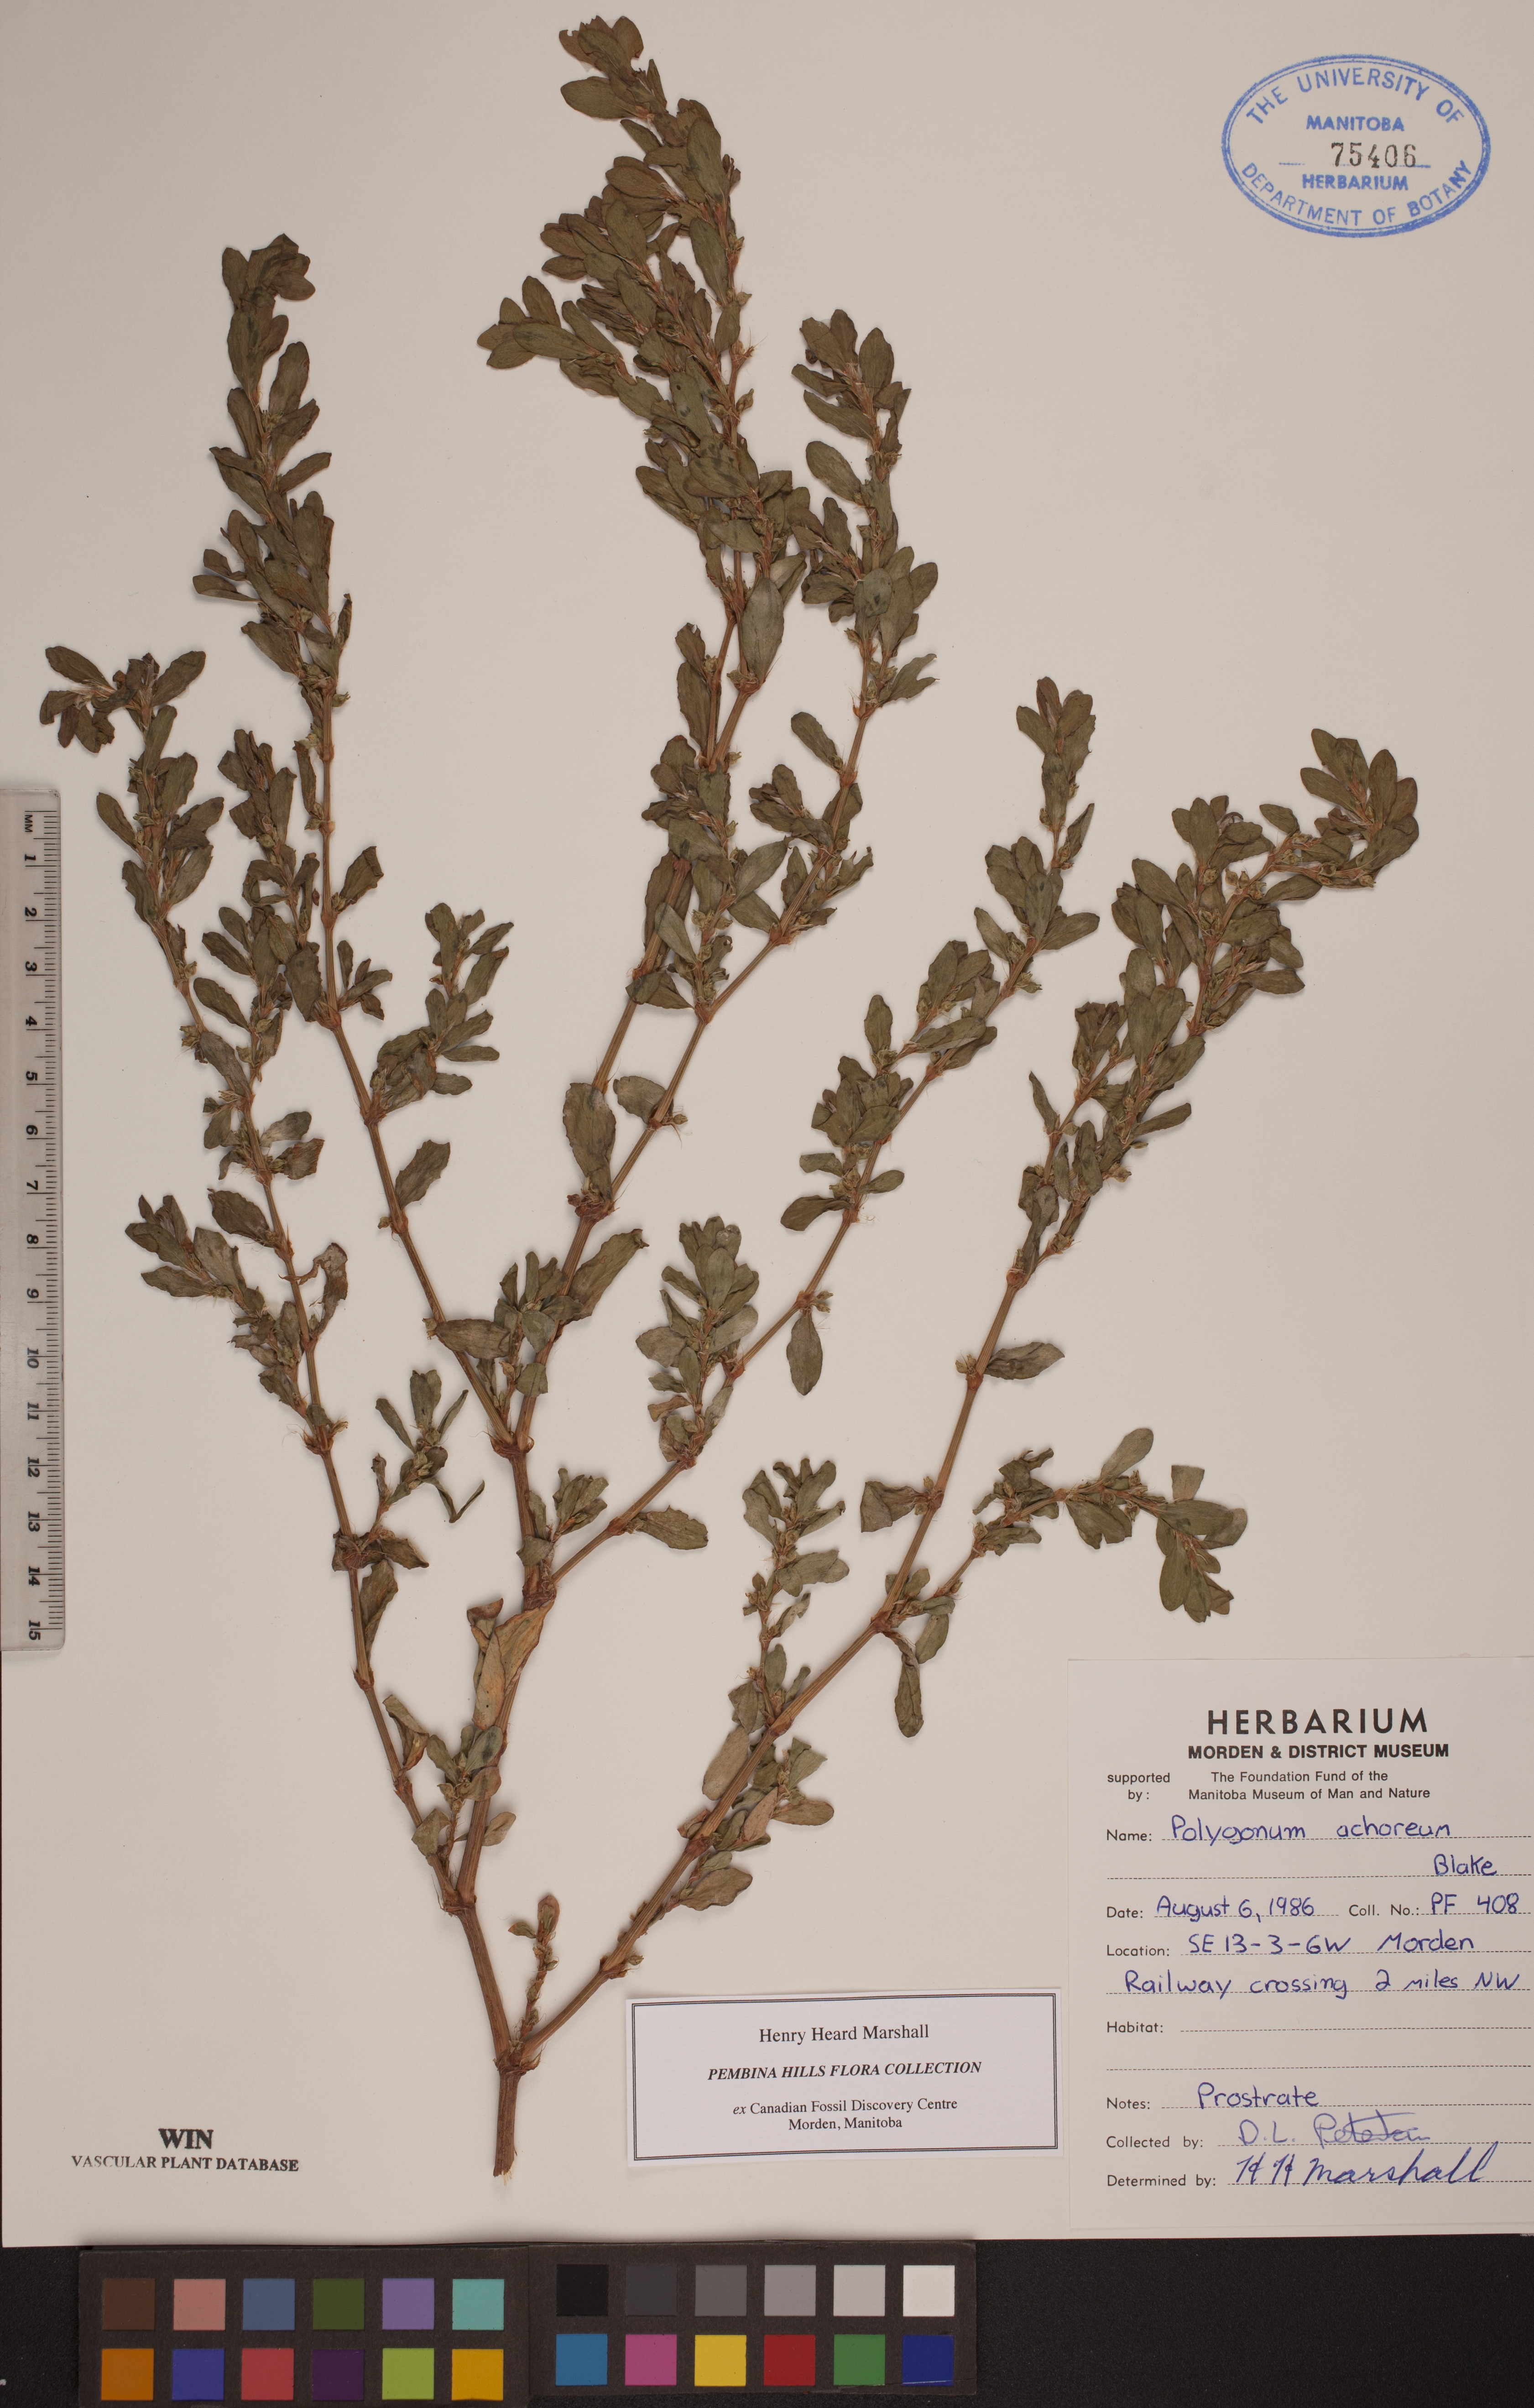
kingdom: Plantae
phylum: Tracheophyta
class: Magnoliopsida
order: Caryophyllales
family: Polygonaceae
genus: Polygonum
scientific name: Polygonum achoreum
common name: Striate knotweed
